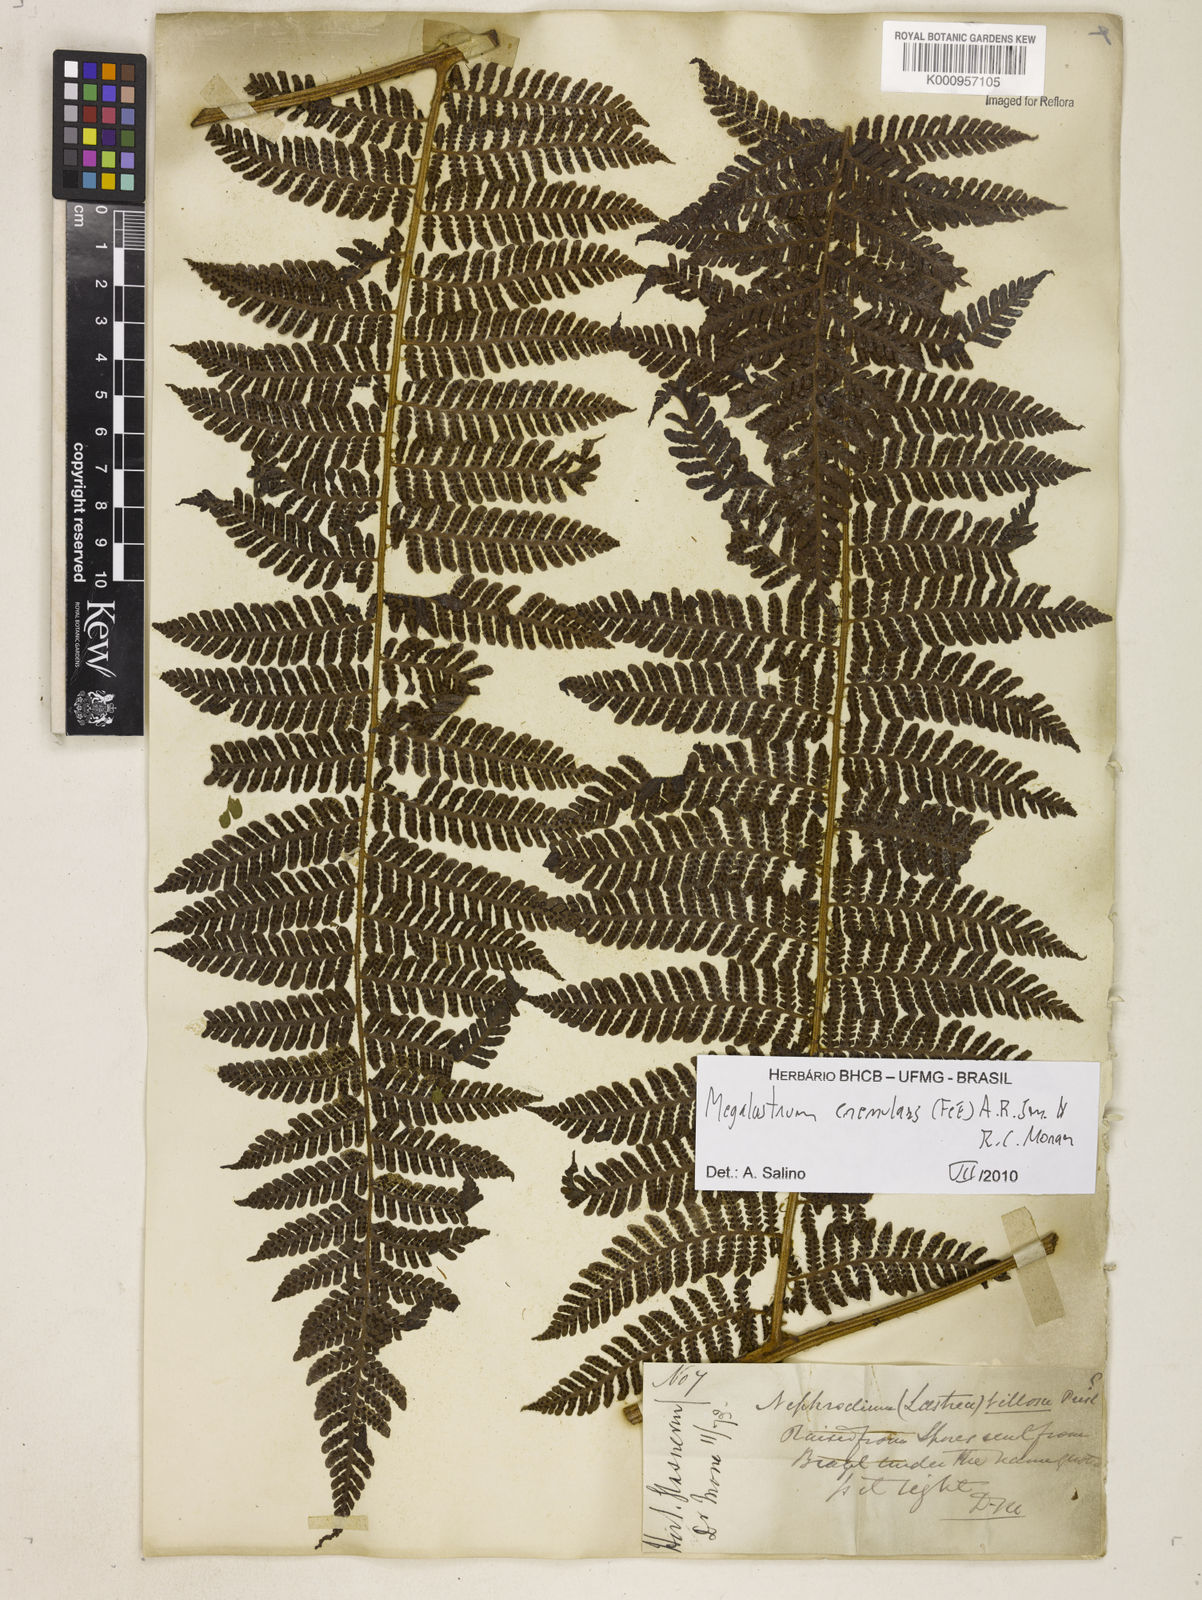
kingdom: Plantae
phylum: Tracheophyta
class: Polypodiopsida
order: Polypodiales
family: Dryopteridaceae
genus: Megalastrum
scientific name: Megalastrum subincisum
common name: Jagleaf junglefern
